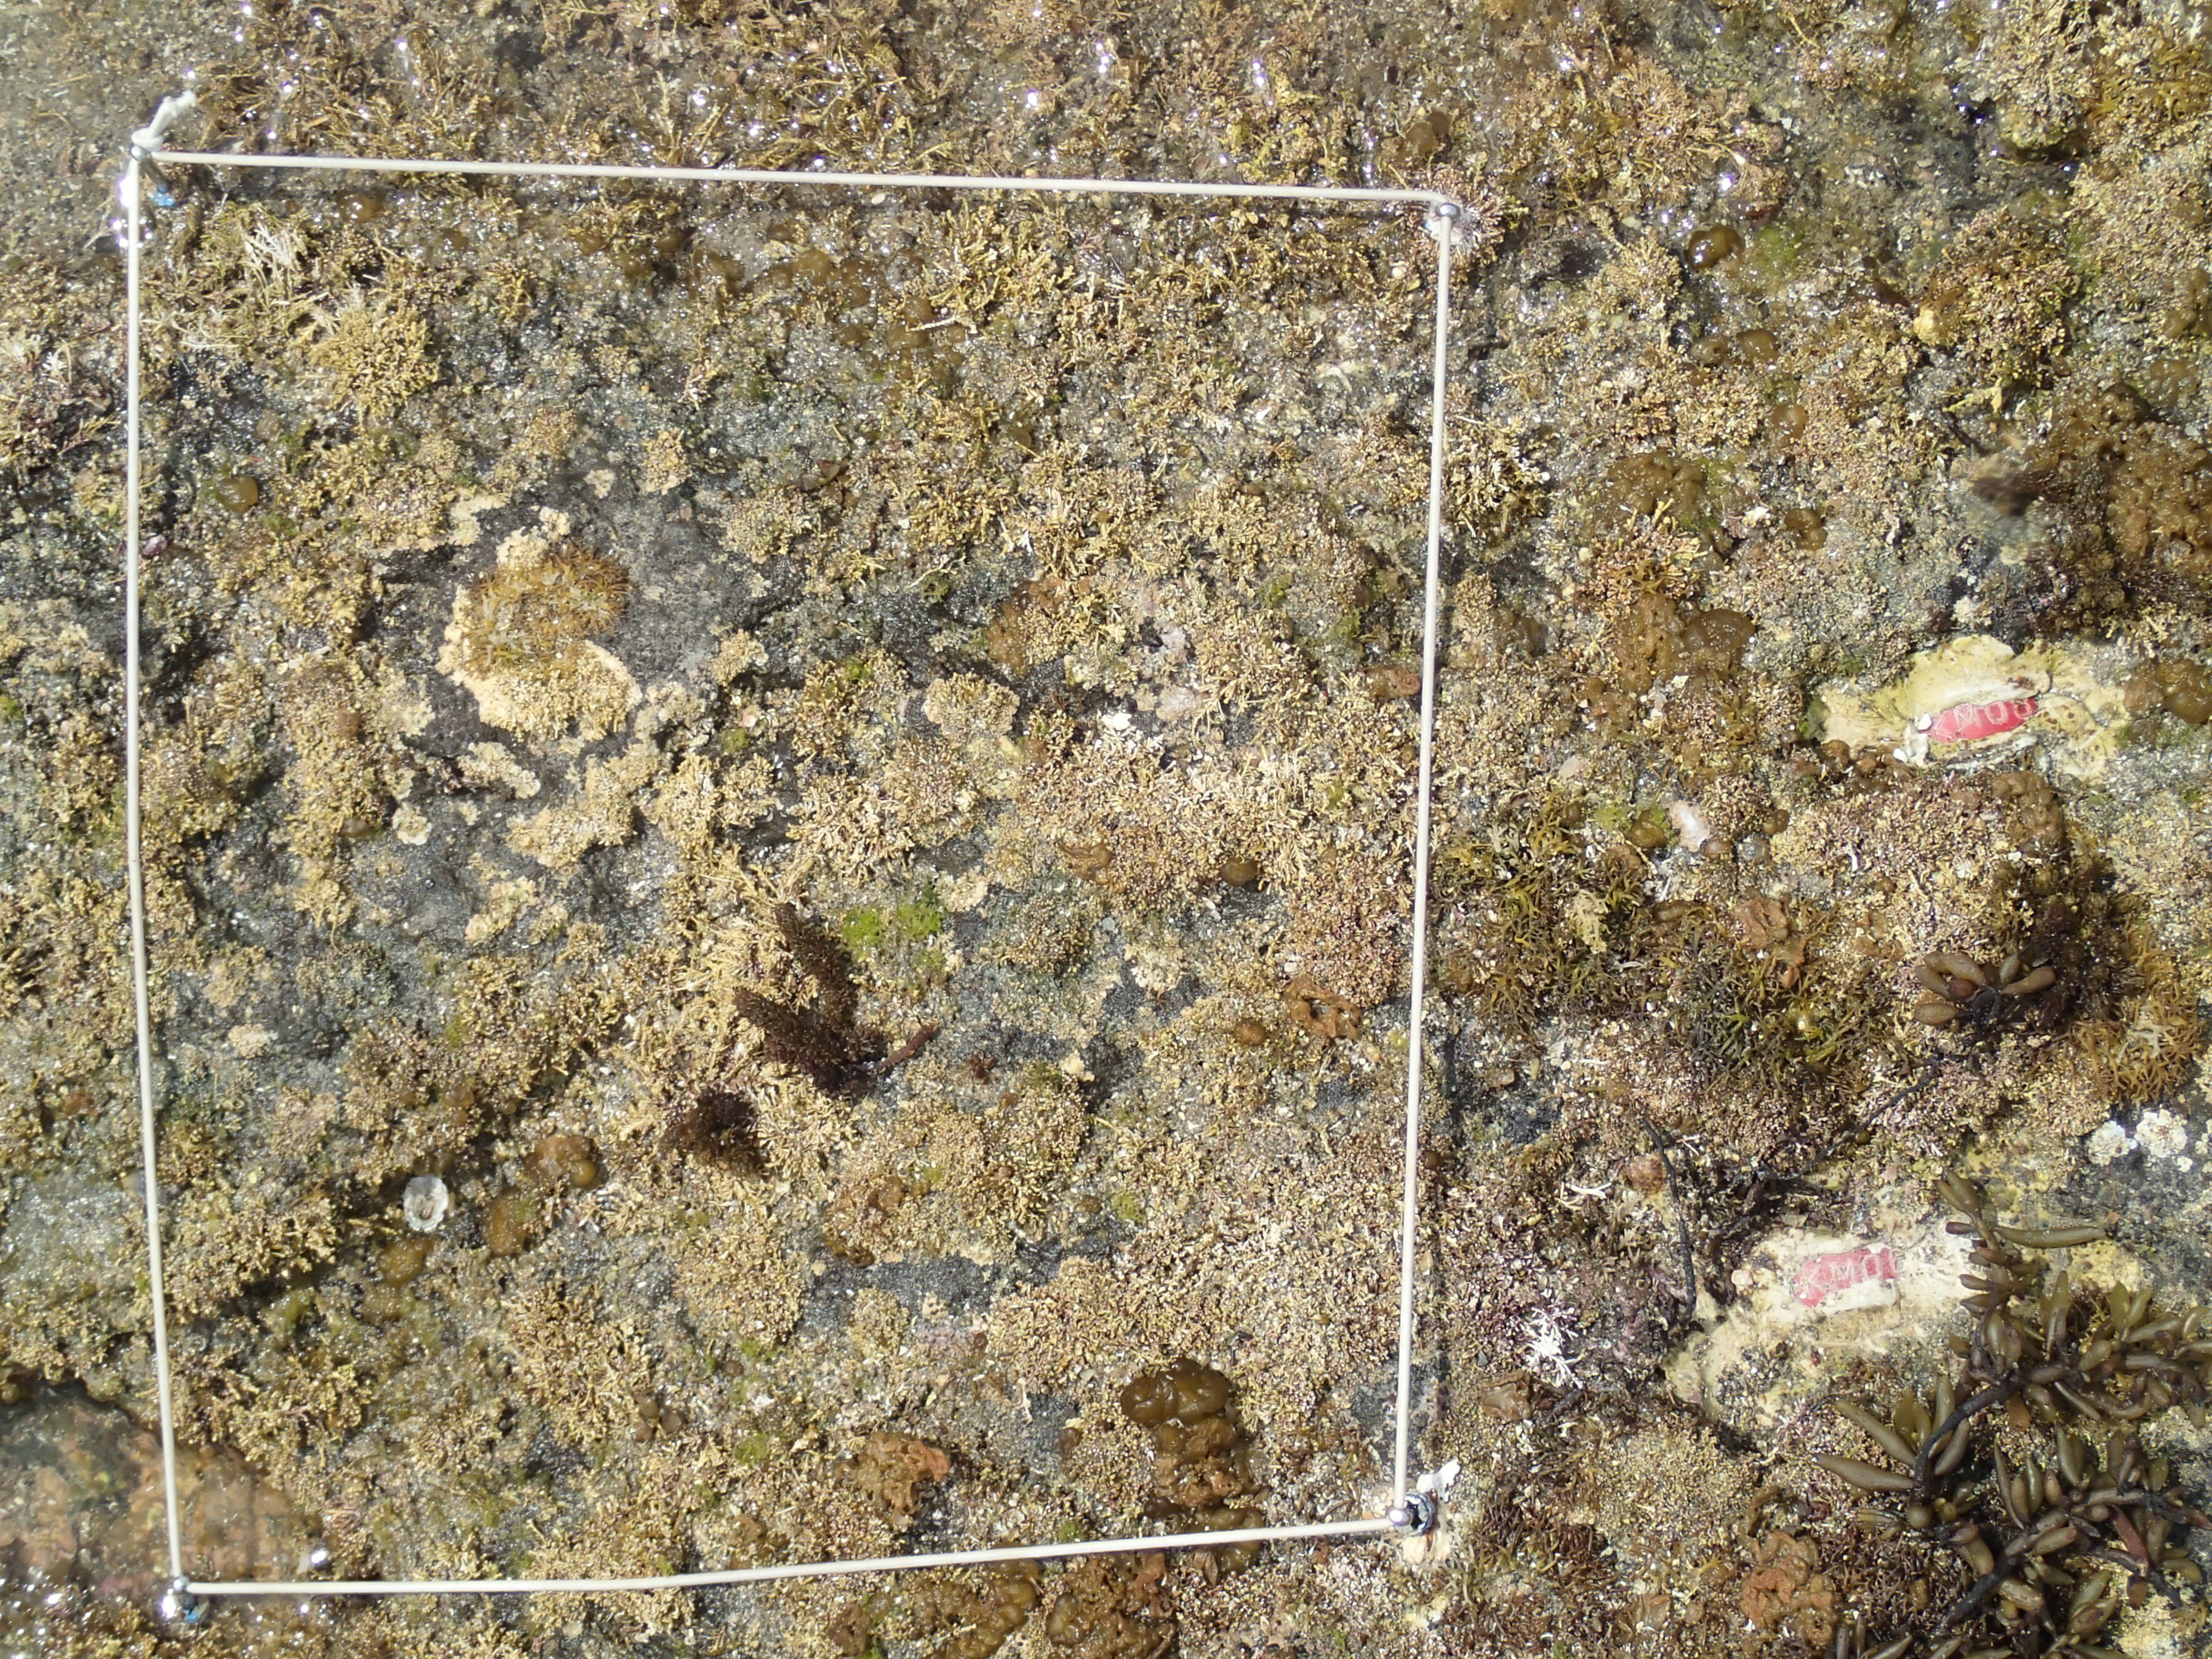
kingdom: Chromista
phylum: Ochrophyta
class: Phaeophyceae
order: Fucales
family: Sargassaceae
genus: Sargassum
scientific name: Sargassum fusiforme
